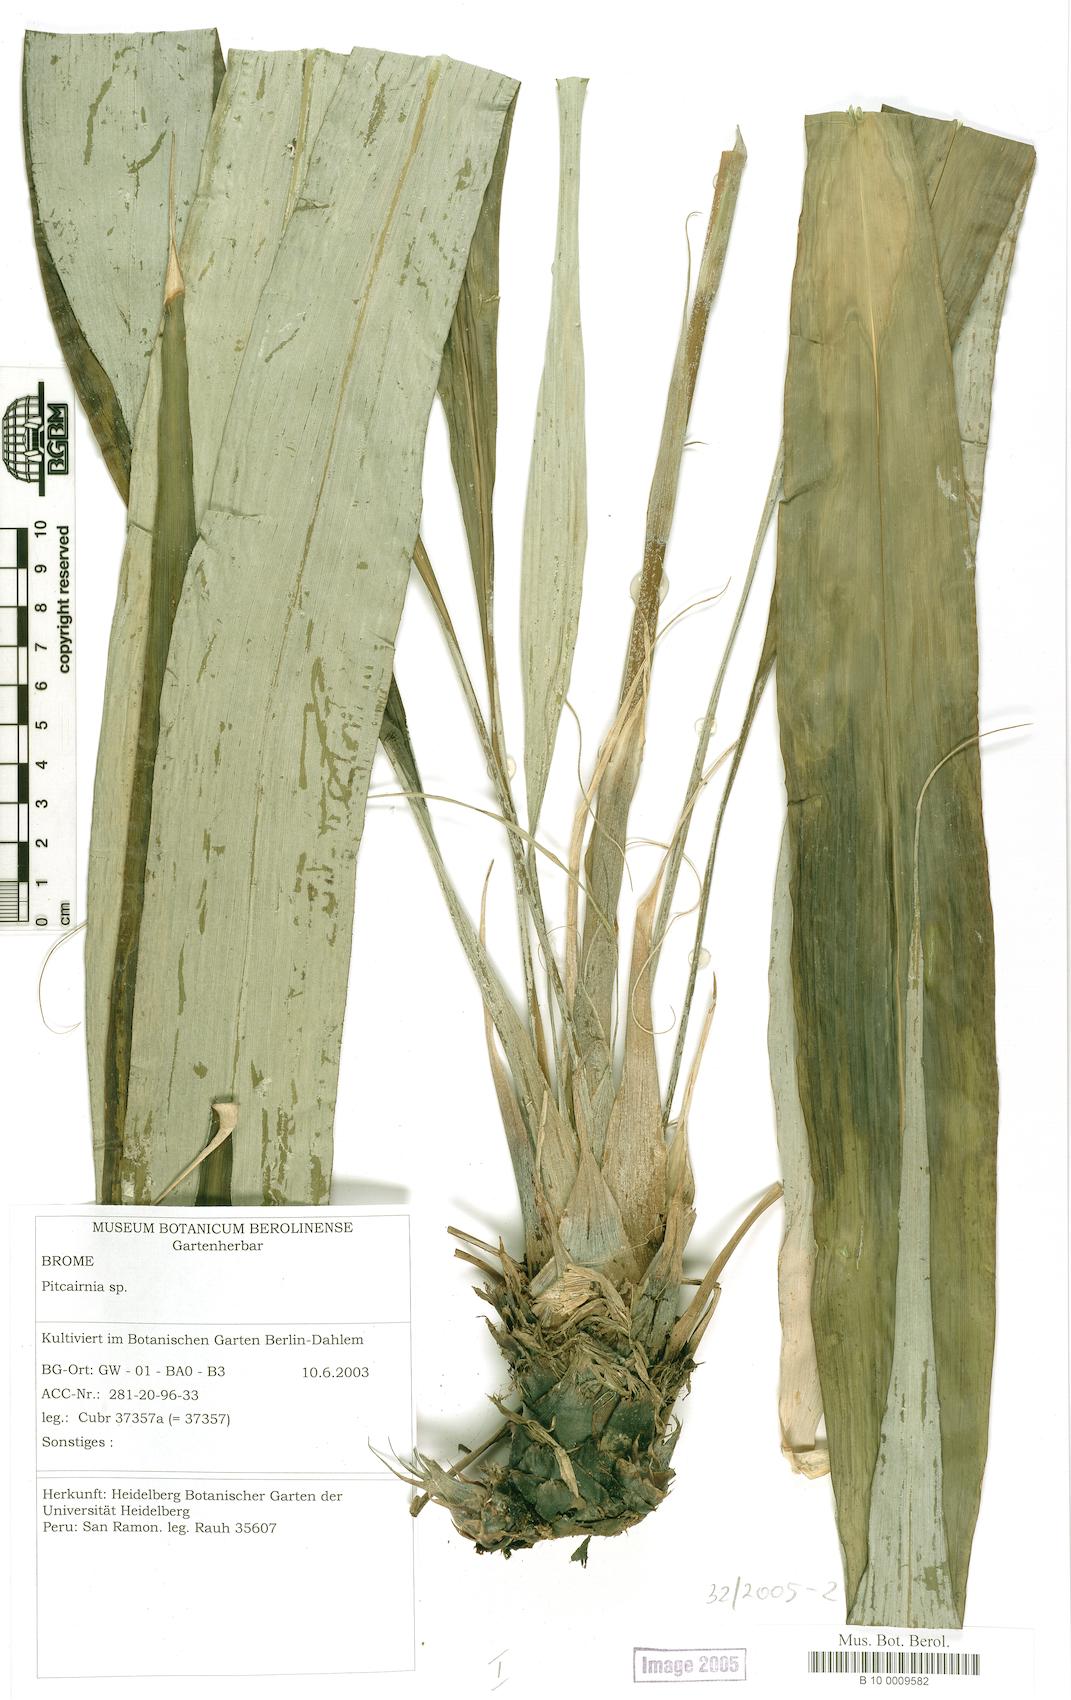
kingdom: Plantae
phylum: Tracheophyta
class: Liliopsida
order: Poales
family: Bromeliaceae
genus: Pitcairnia
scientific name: Pitcairnia
